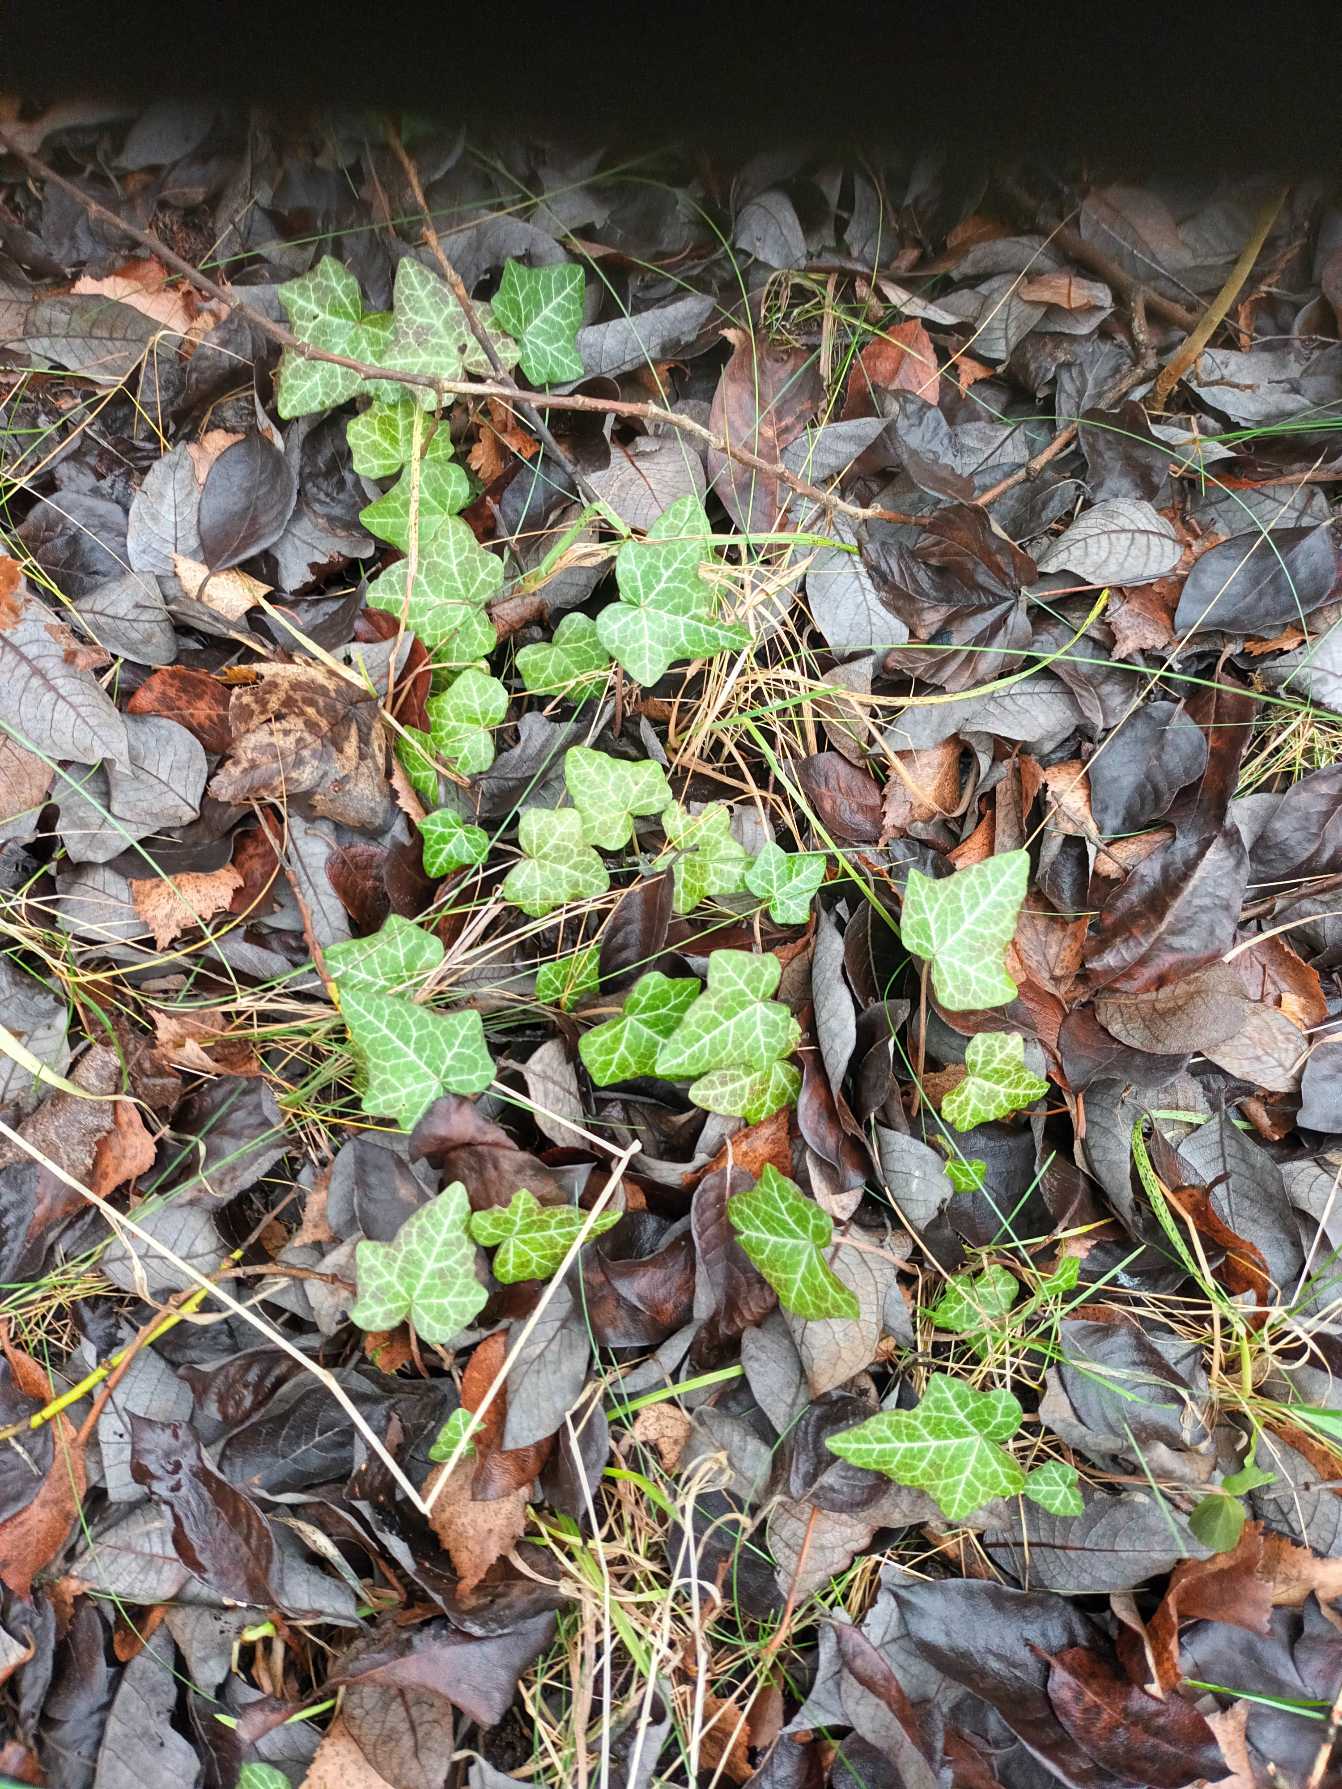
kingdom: Plantae
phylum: Tracheophyta
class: Magnoliopsida
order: Apiales
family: Araliaceae
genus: Hedera
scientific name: Hedera helix
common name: Vedbend
